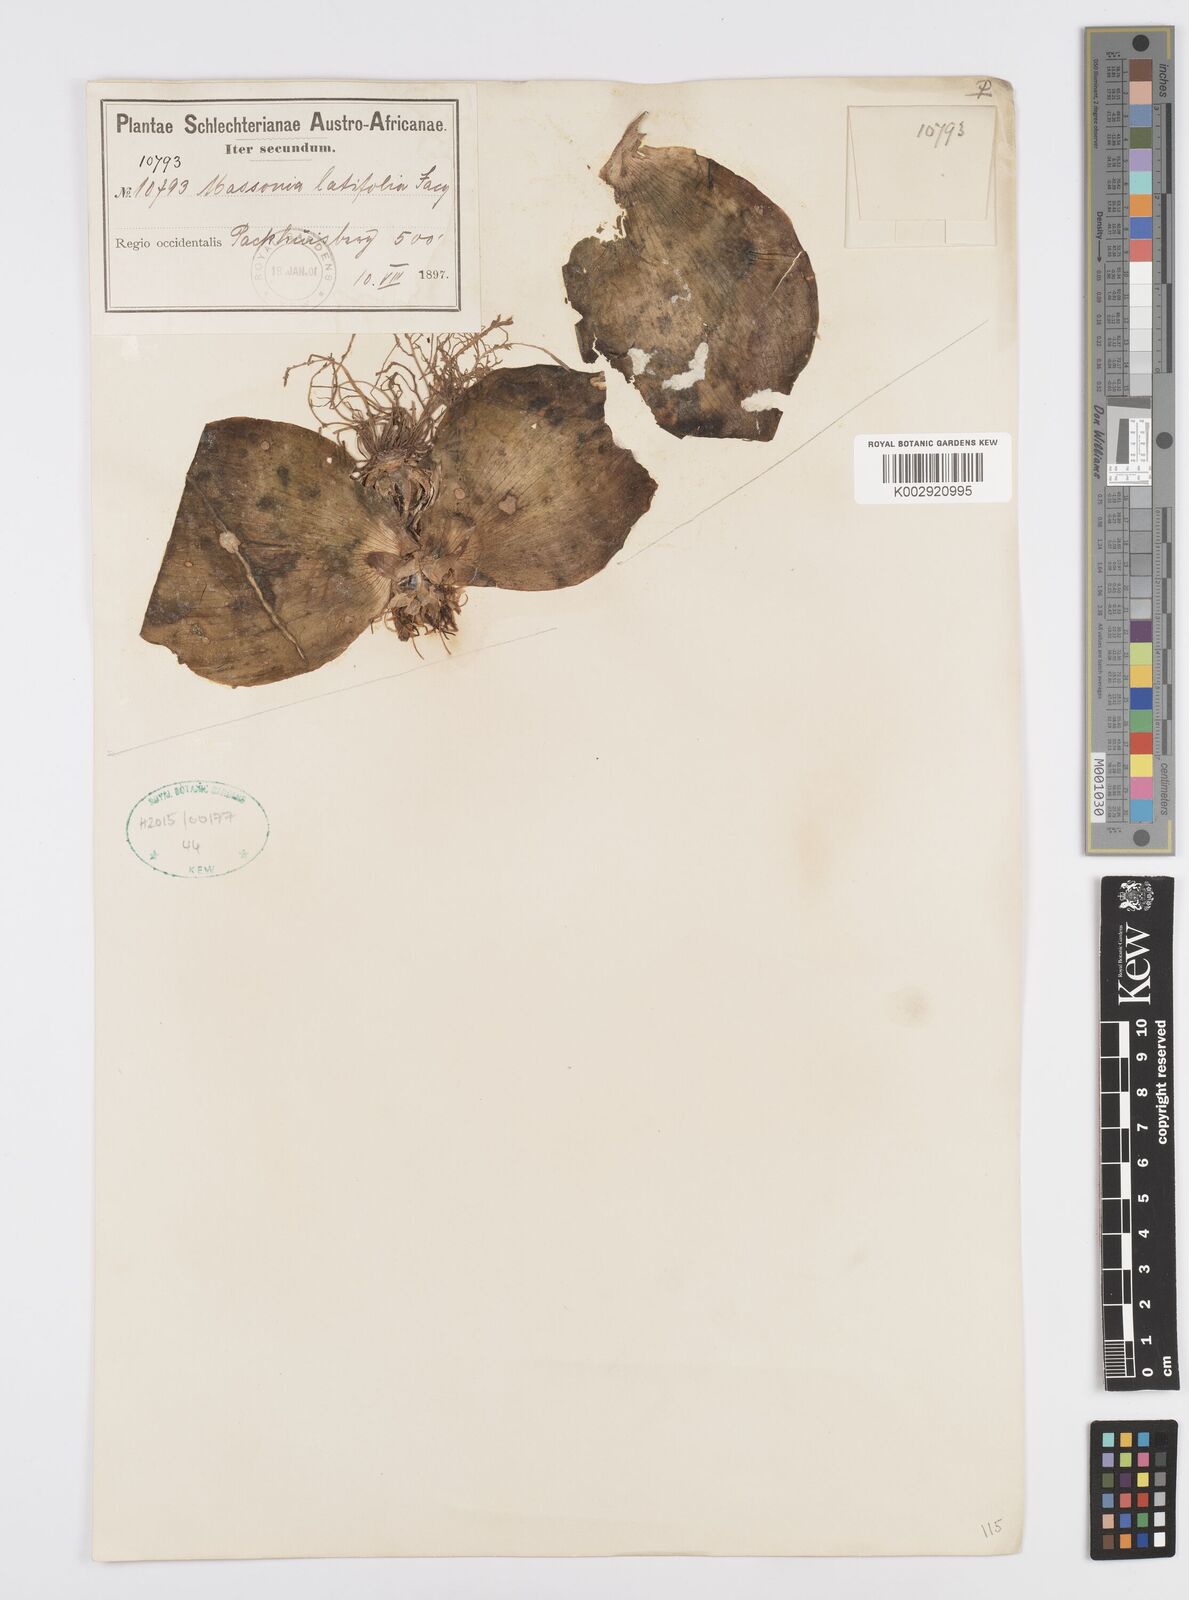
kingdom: Plantae
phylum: Tracheophyta
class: Liliopsida
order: Asparagales
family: Asparagaceae
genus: Massonia
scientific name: Massonia
